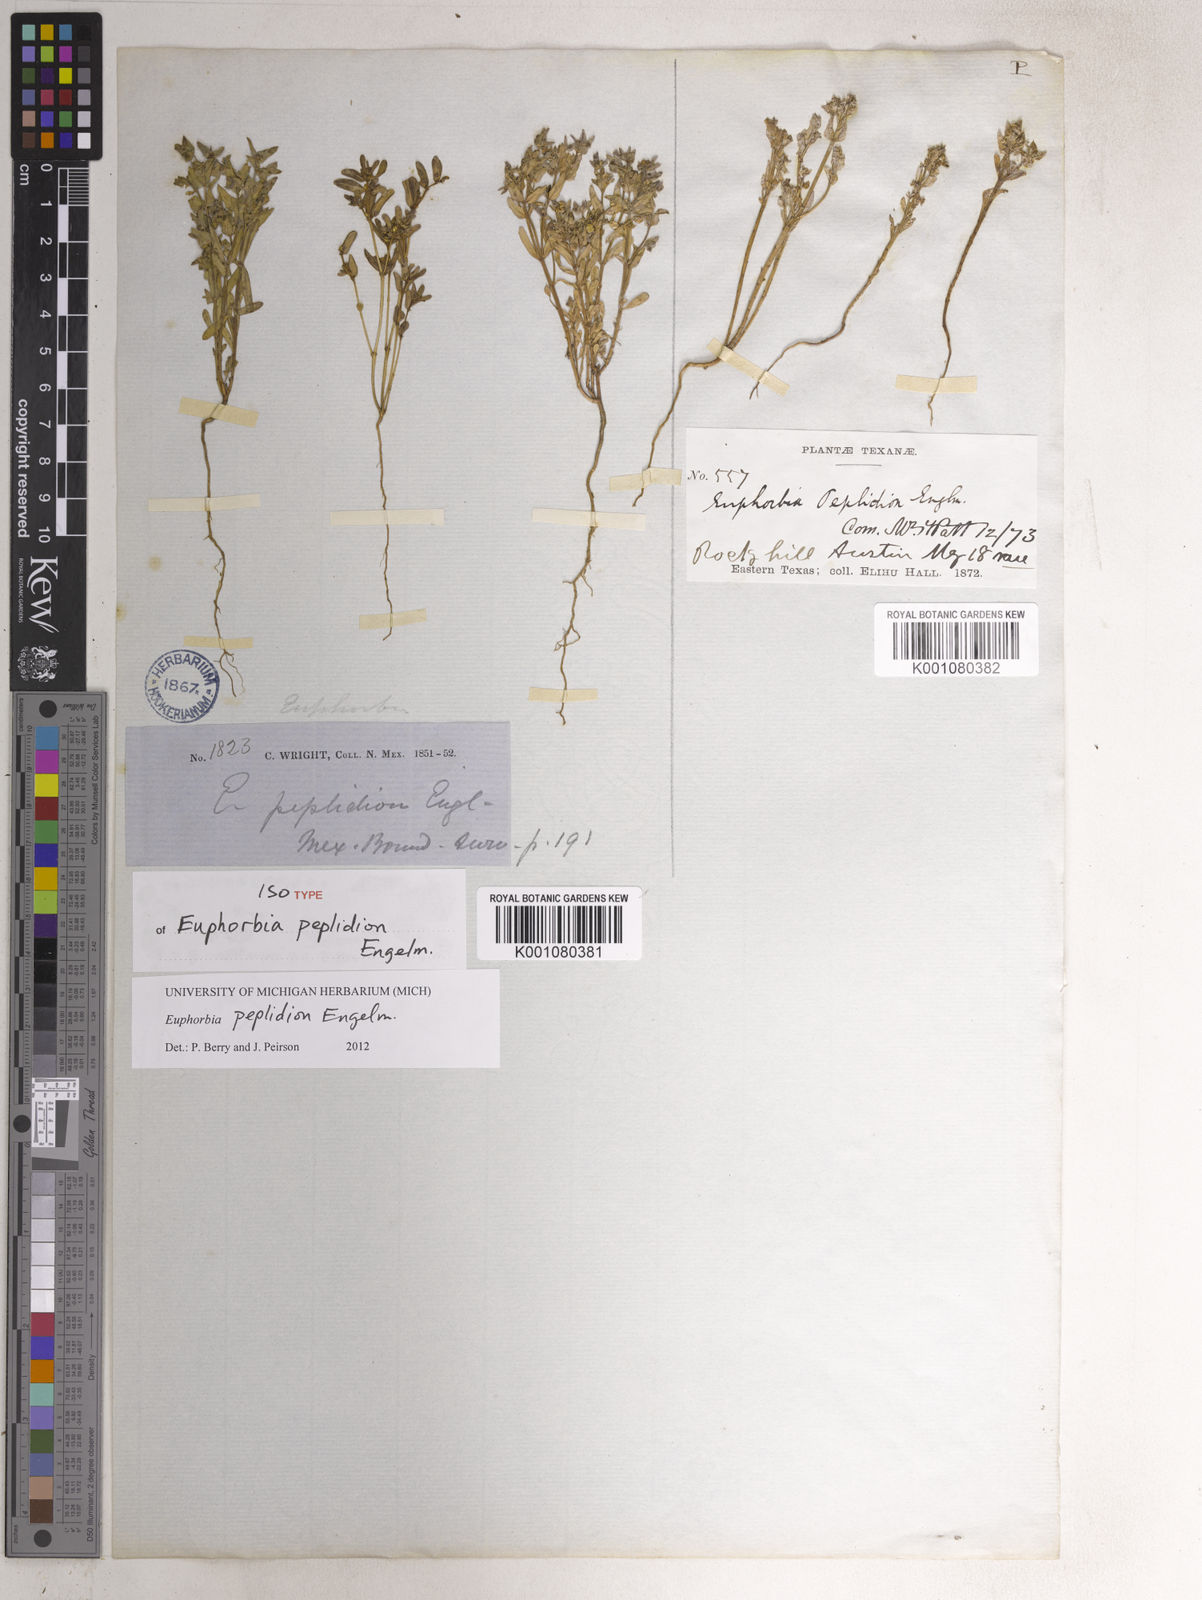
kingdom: Plantae
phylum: Tracheophyta
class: Magnoliopsida
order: Malpighiales
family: Euphorbiaceae
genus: Euphorbia
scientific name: Euphorbia peplidion
